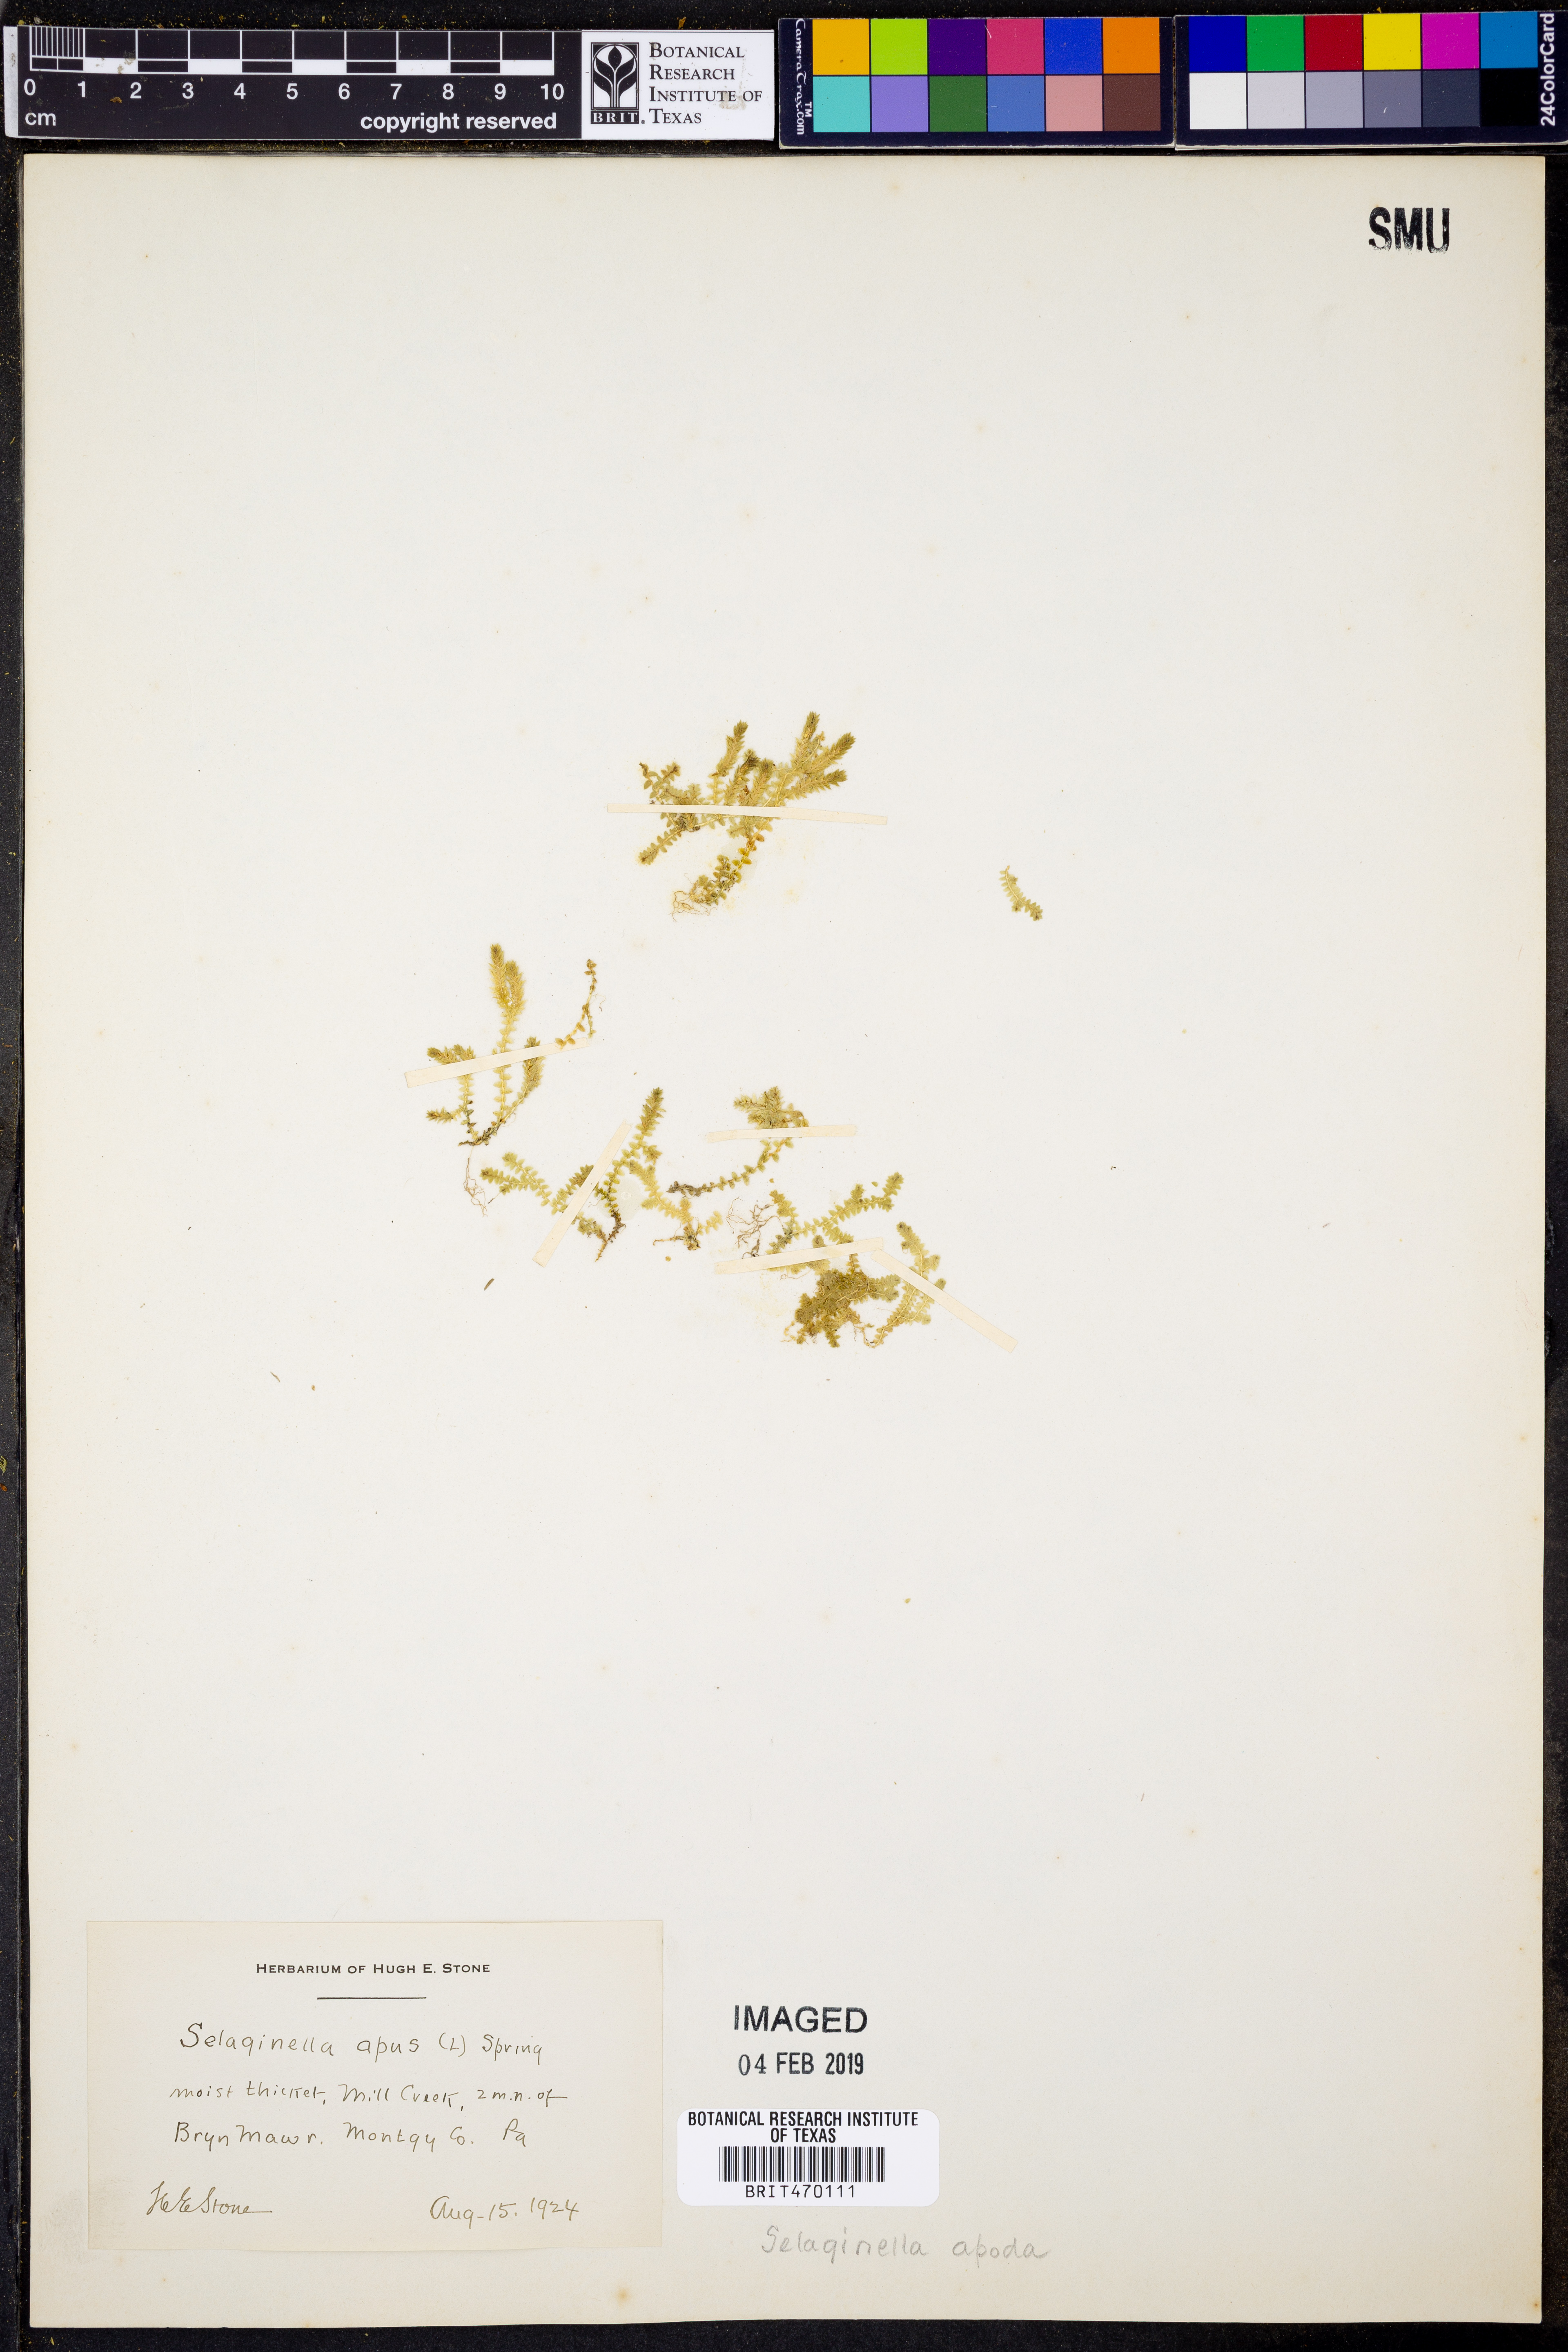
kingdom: Plantae
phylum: Tracheophyta
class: Lycopodiopsida
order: Selaginellales
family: Selaginellaceae
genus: Selaginella
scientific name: Selaginella apoda
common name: Creeping spikemoss
